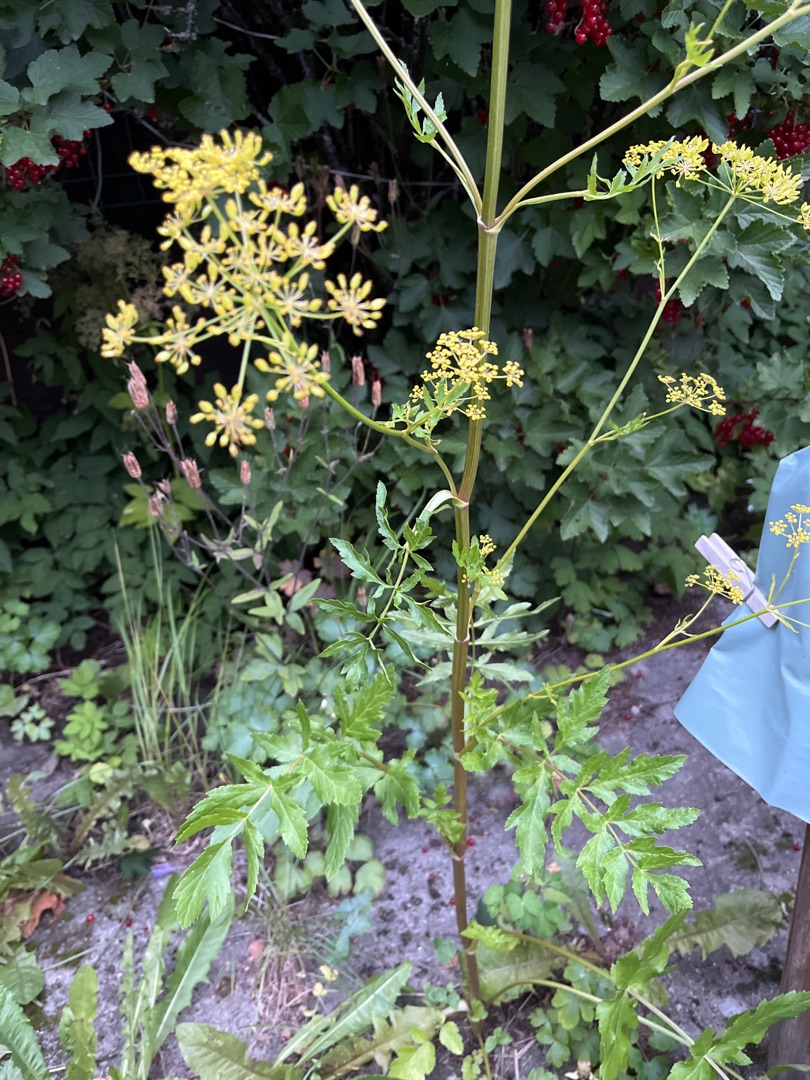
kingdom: Plantae
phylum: Tracheophyta
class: Magnoliopsida
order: Apiales
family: Apiaceae
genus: Pastinaca
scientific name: Pastinaca sativa
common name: Have-pastinak
